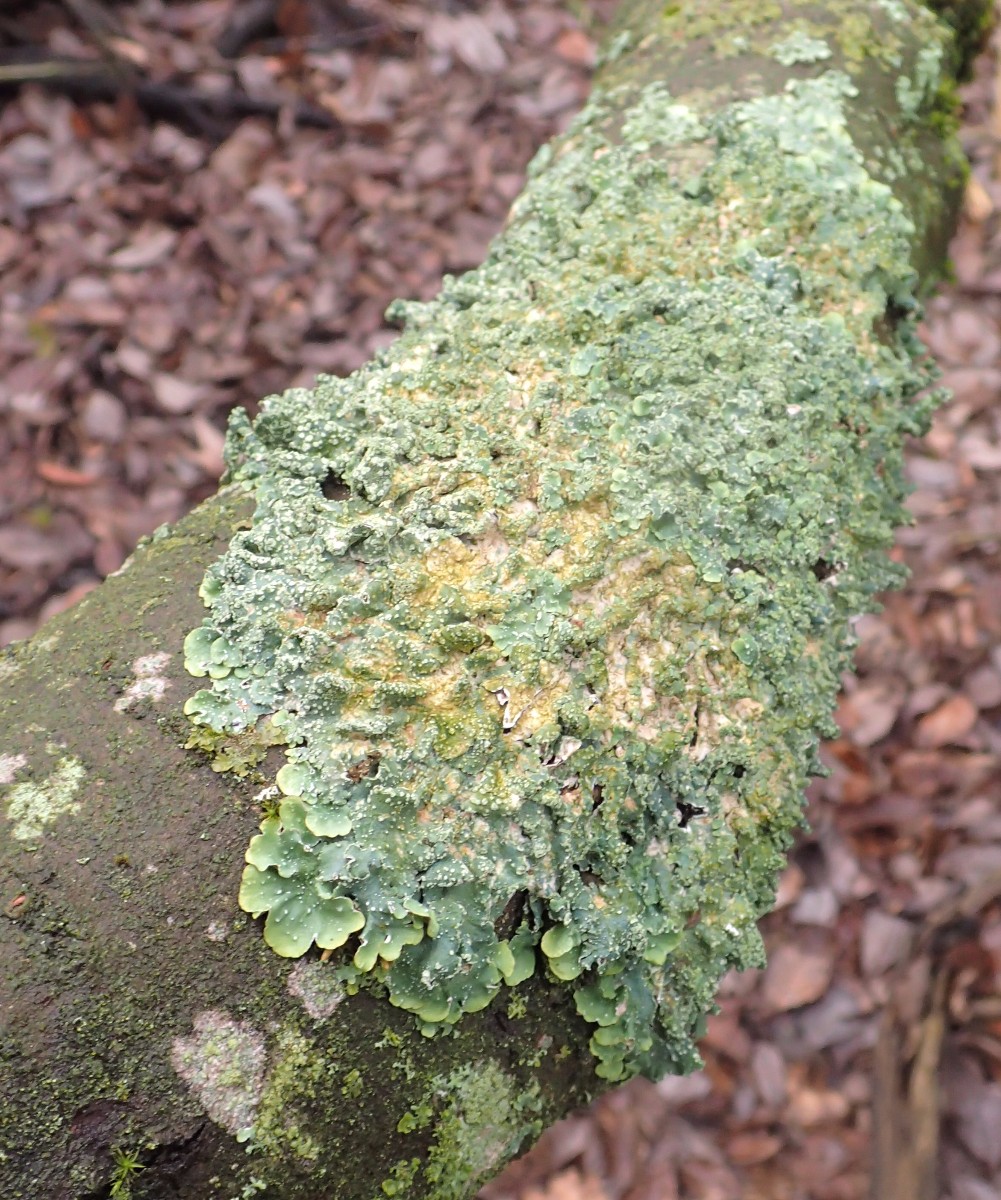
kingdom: Fungi
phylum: Ascomycota
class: Lecanoromycetes
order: Lecanorales
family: Parmeliaceae
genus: Punctelia
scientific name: Punctelia subrudecta
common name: punkt-skållav
